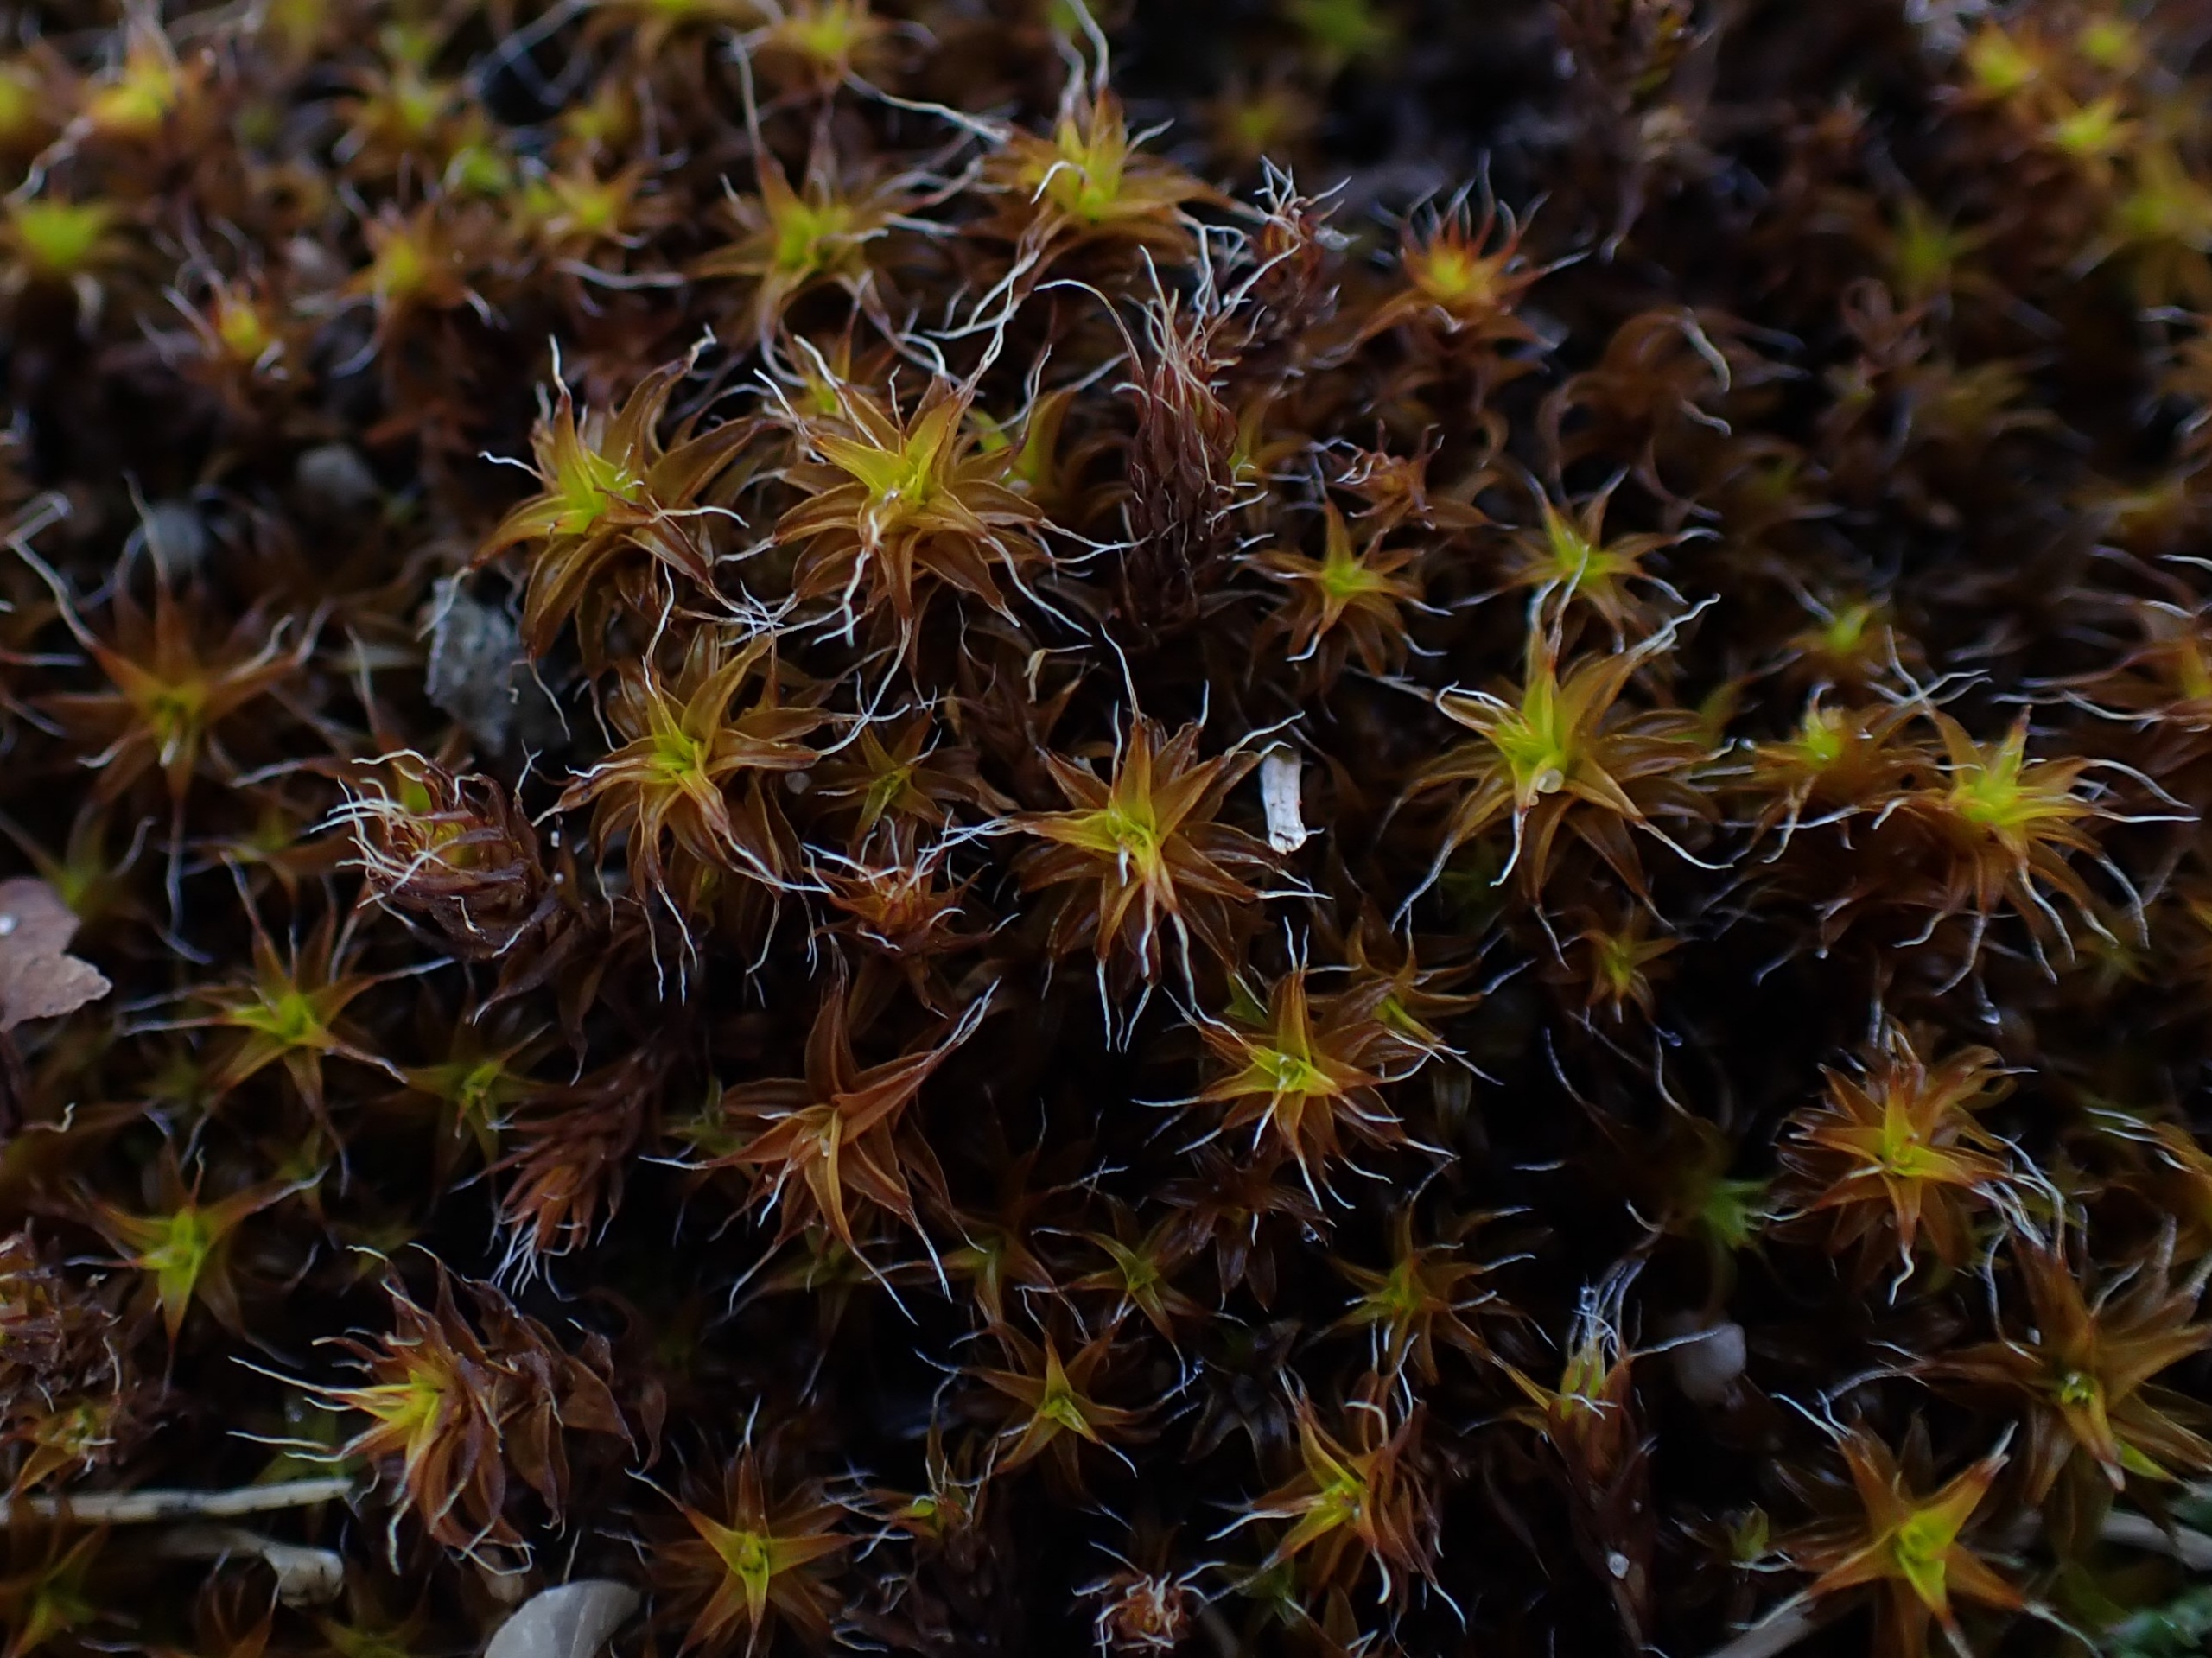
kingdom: Plantae
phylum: Bryophyta
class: Bryopsida
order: Pottiales
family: Pottiaceae
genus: Syntrichia
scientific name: Syntrichia ruralis
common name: Spidsbladet hårstjerne
